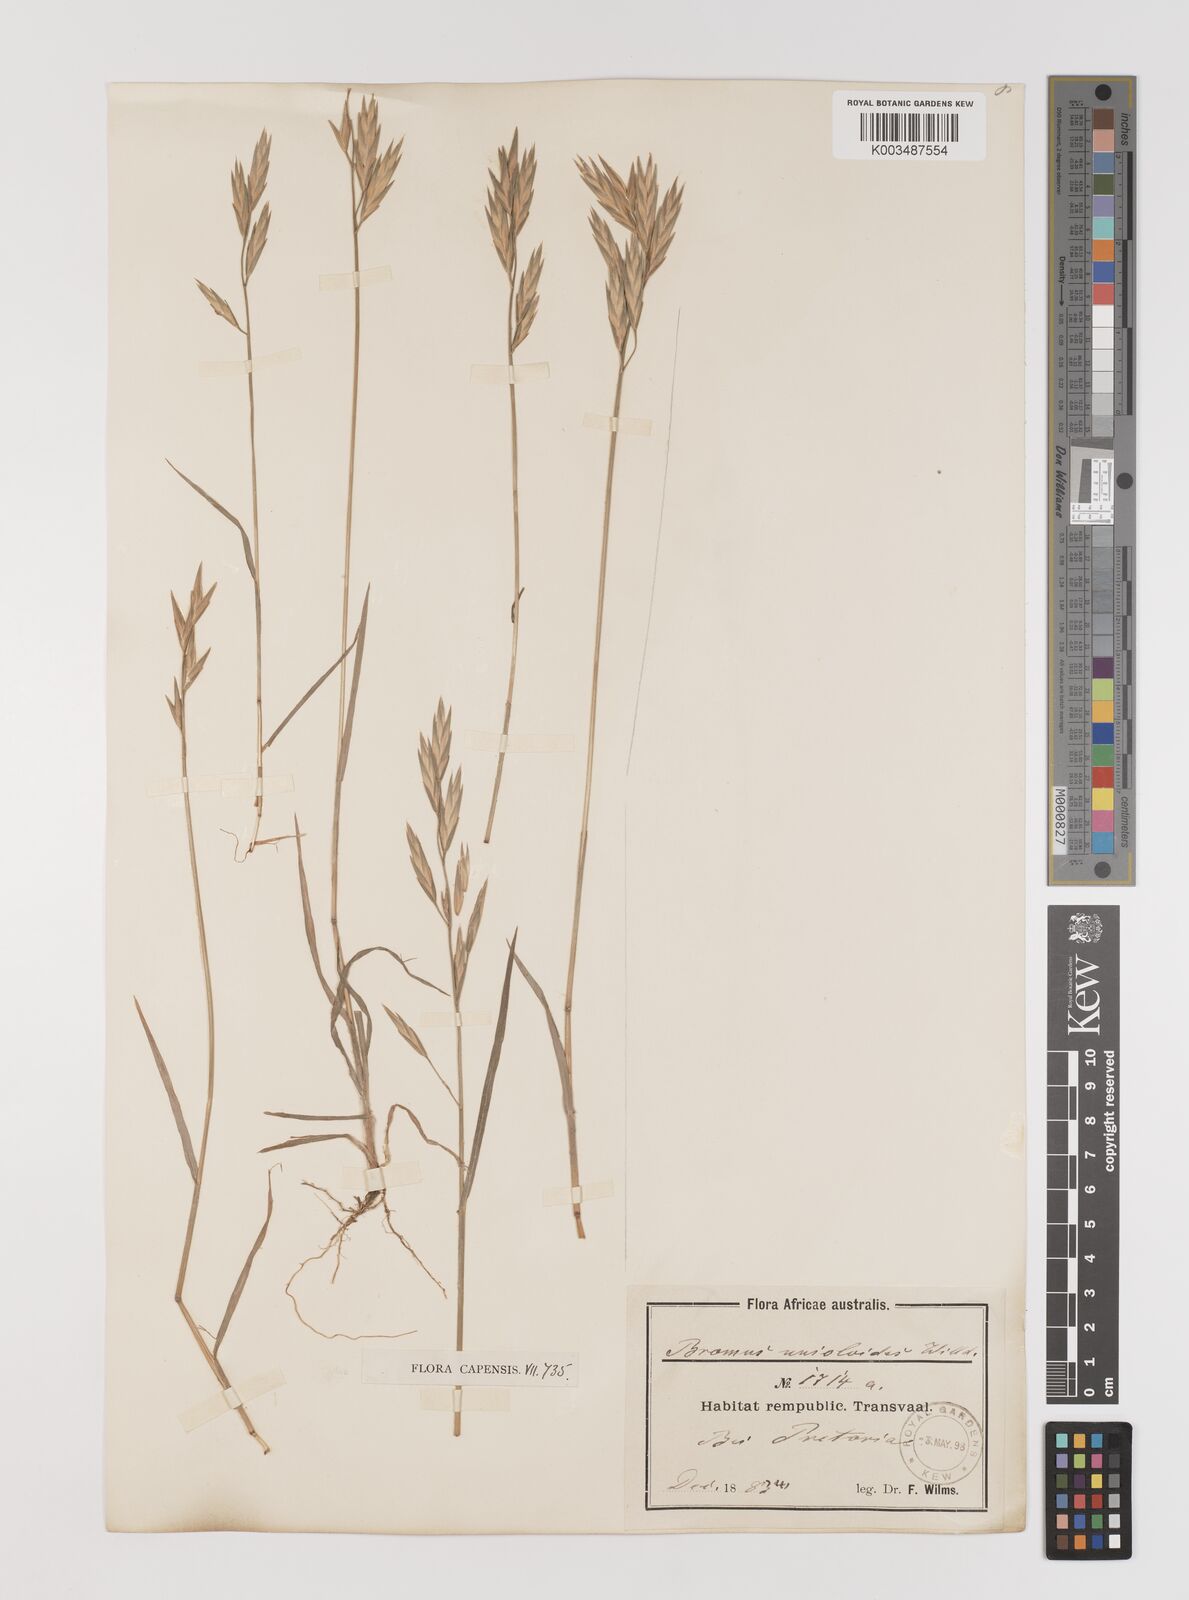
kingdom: Plantae
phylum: Tracheophyta
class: Liliopsida
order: Poales
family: Poaceae
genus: Bromus
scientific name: Bromus catharticus
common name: Rescuegrass
